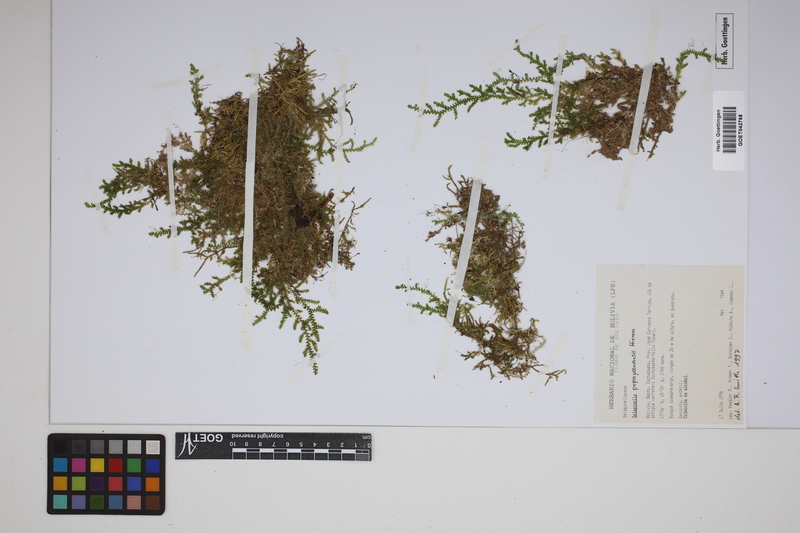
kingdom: Plantae
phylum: Tracheophyta
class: Lycopodiopsida
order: Selaginellales
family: Selaginellaceae
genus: Selaginella
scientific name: Selaginella popayanensis
